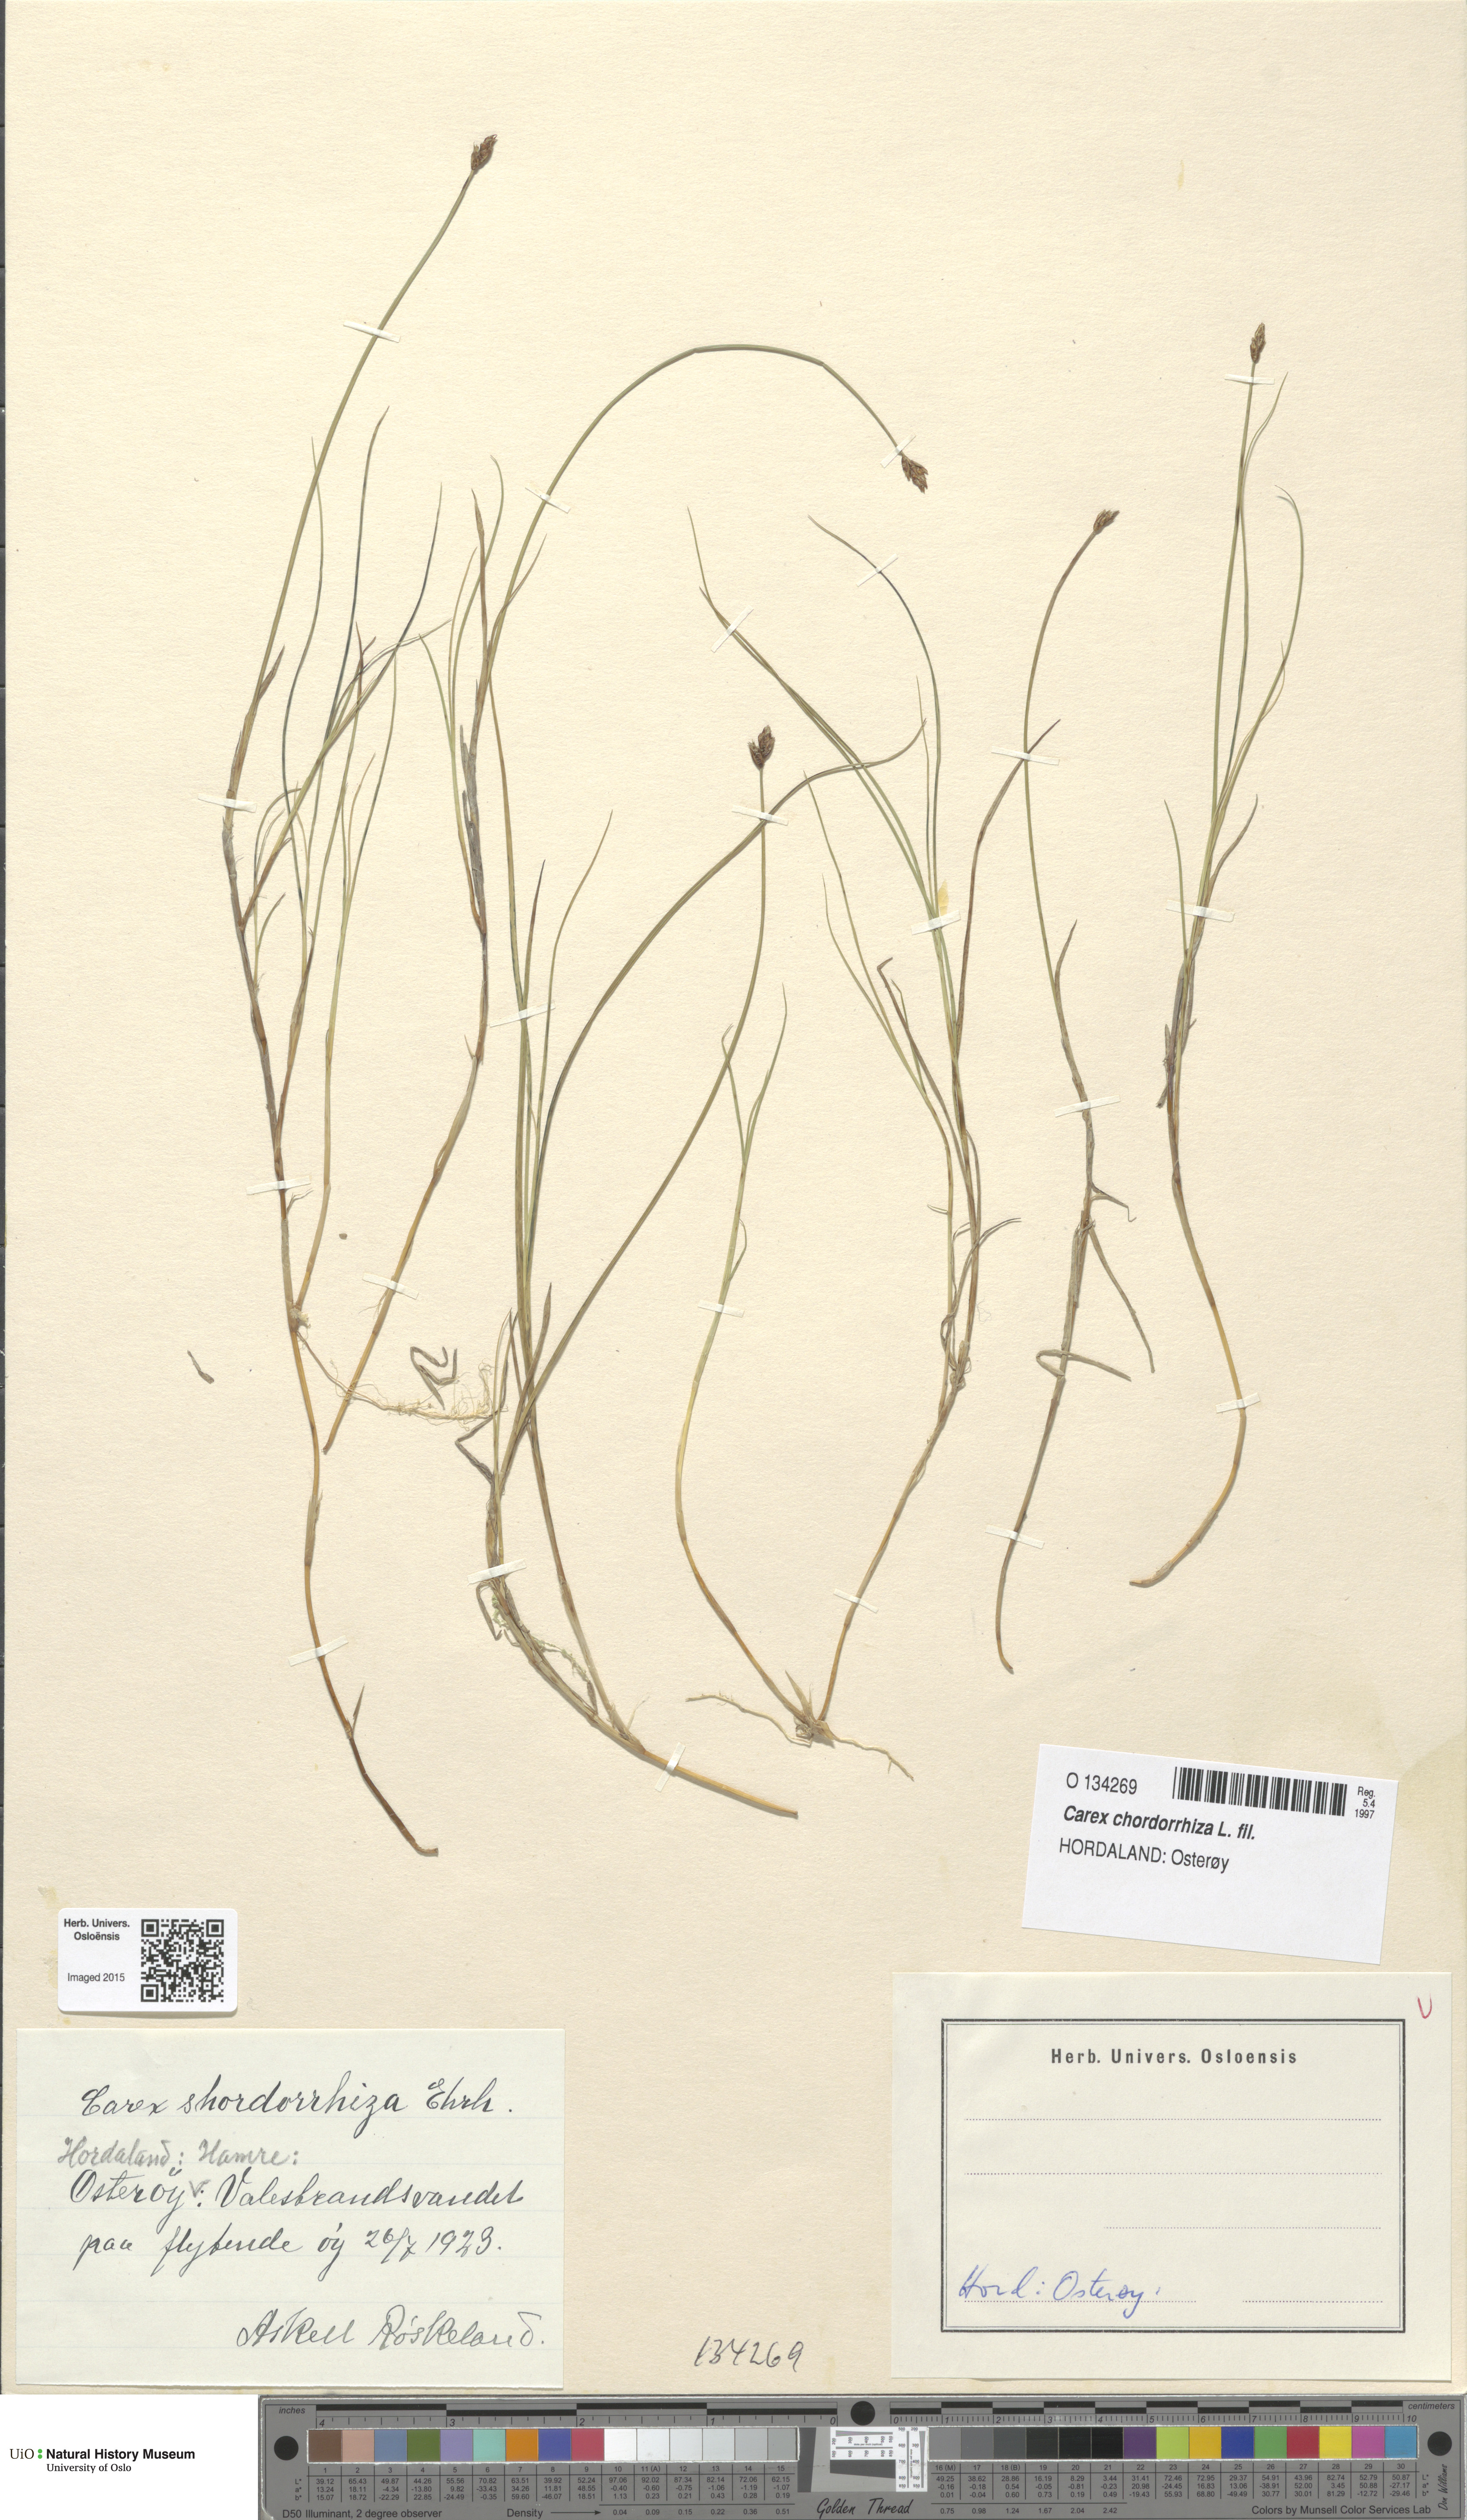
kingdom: Plantae
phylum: Tracheophyta
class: Liliopsida
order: Poales
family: Cyperaceae
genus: Carex
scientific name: Carex chordorrhiza
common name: String sedge
